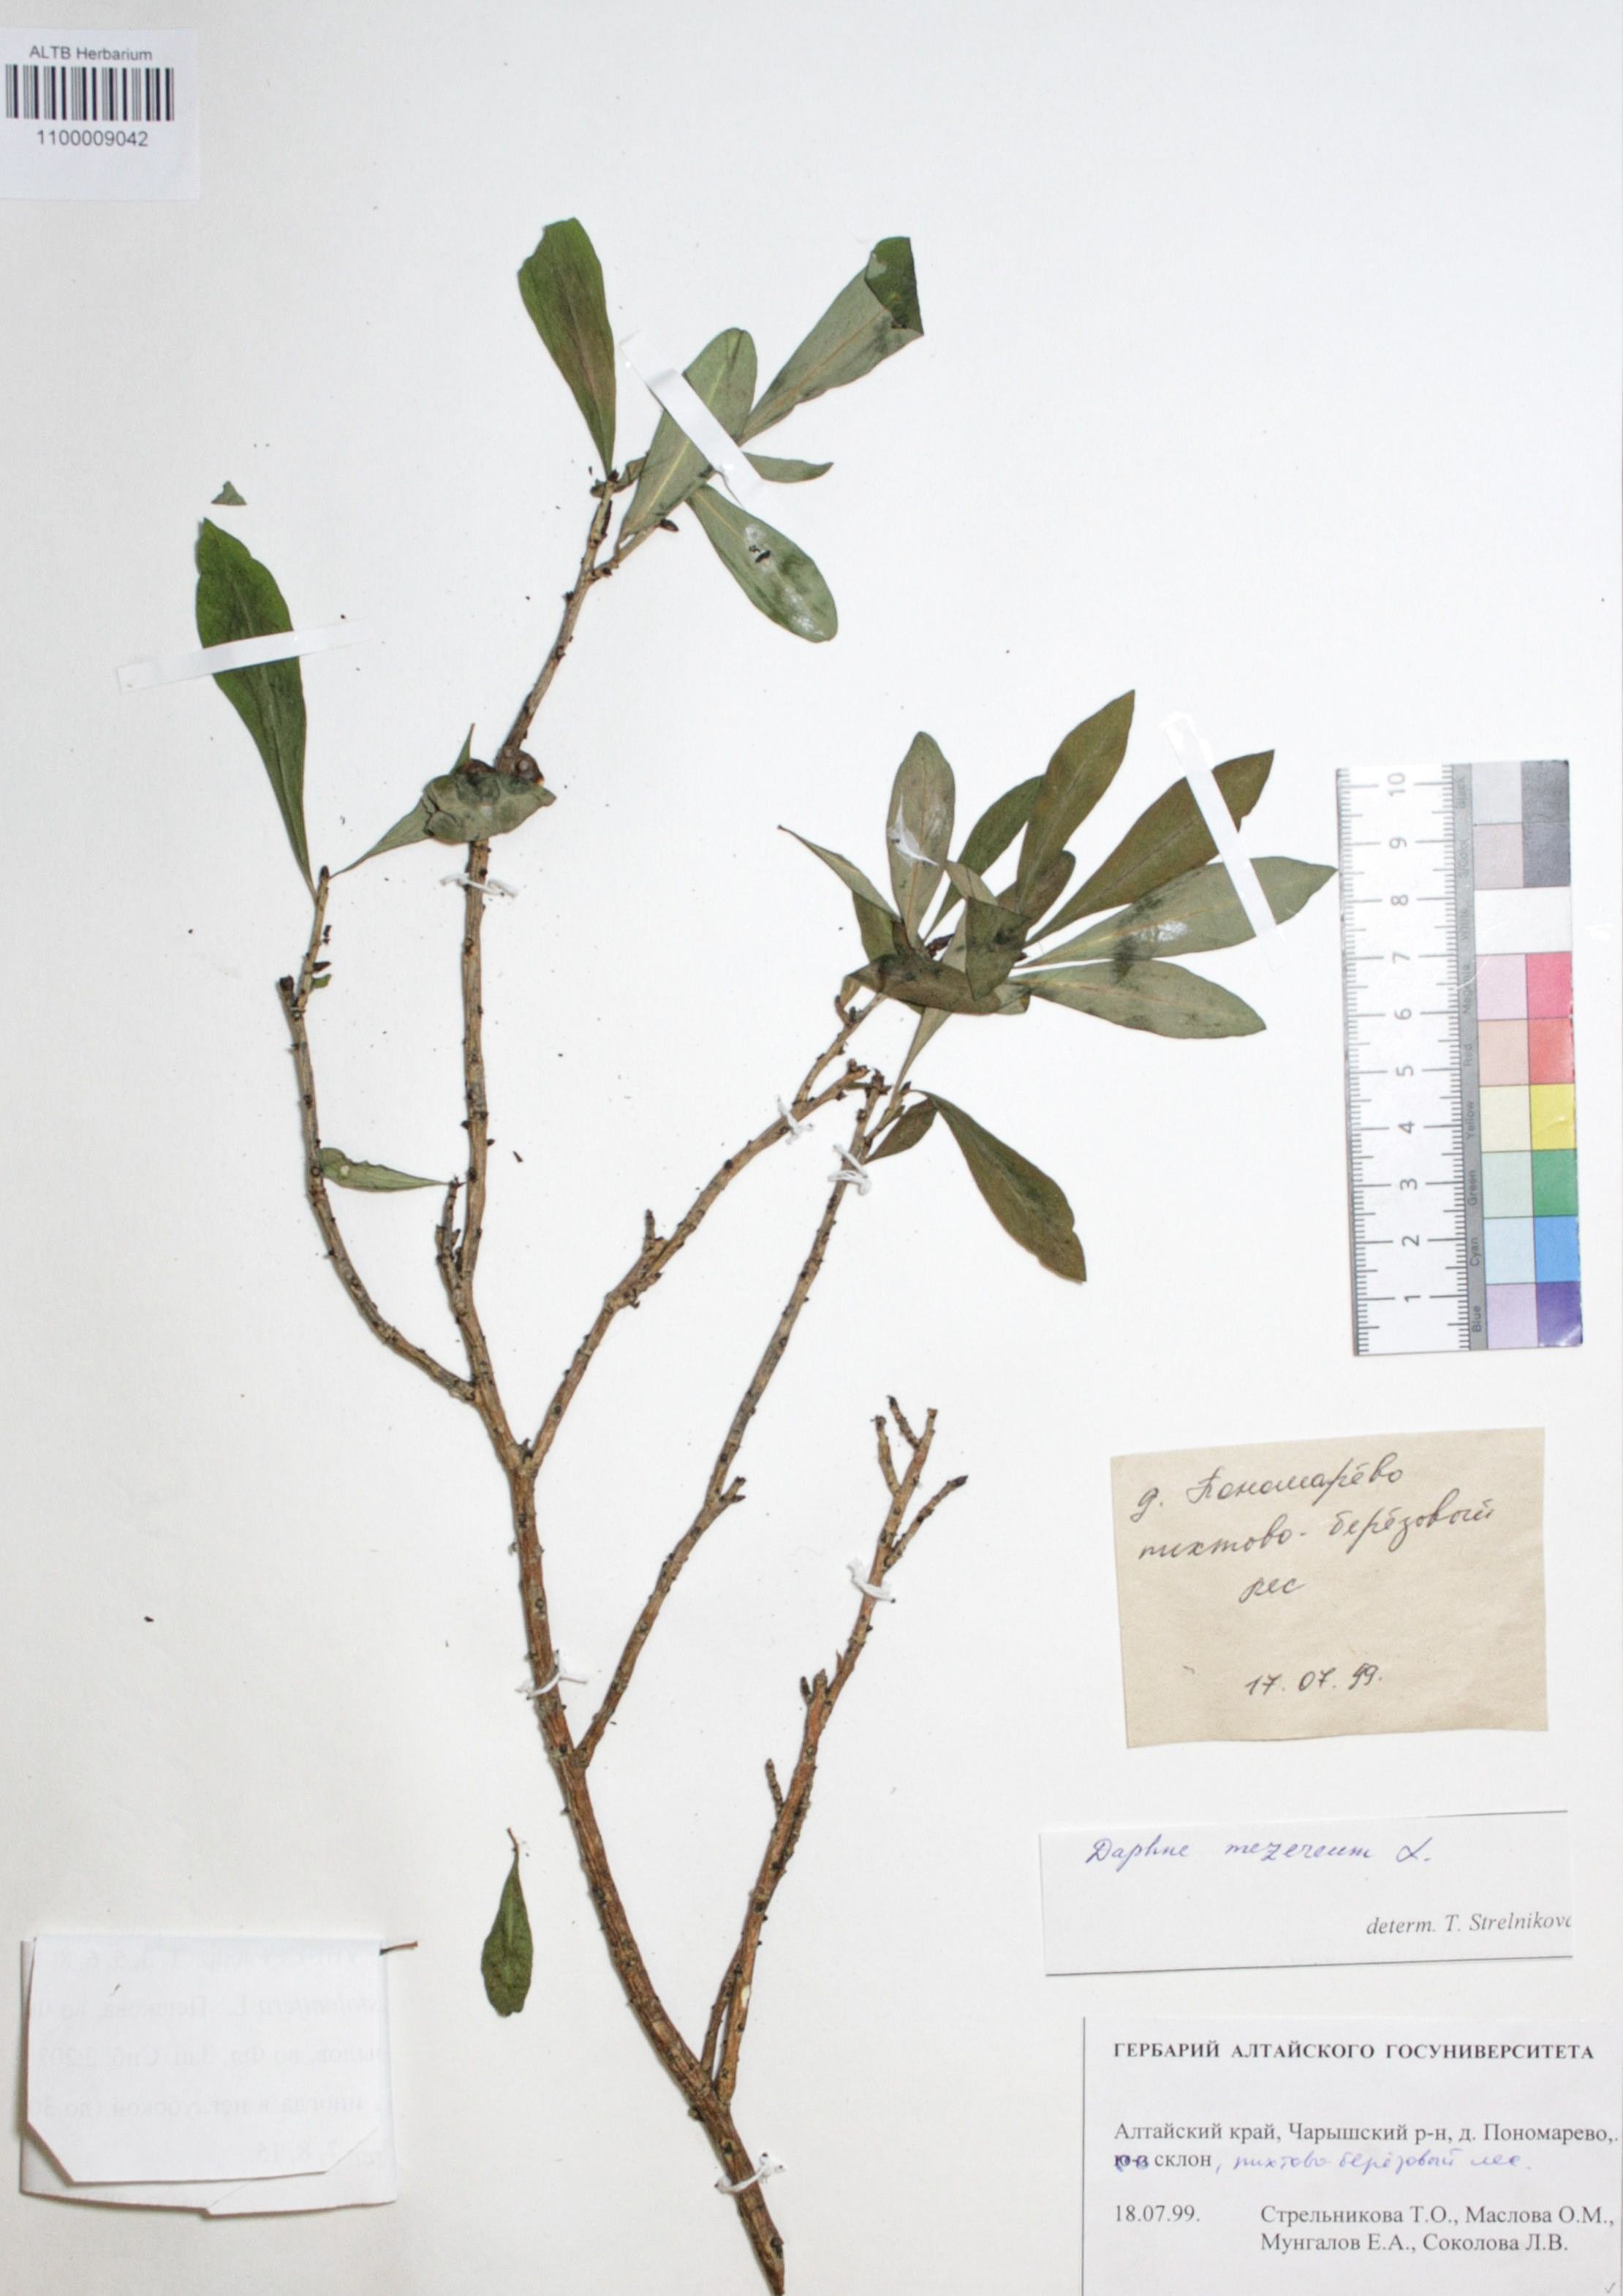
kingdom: Plantae
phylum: Tracheophyta
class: Magnoliopsida
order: Malvales
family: Thymelaeaceae
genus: Daphne
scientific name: Daphne mezereum
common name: Mezereon
